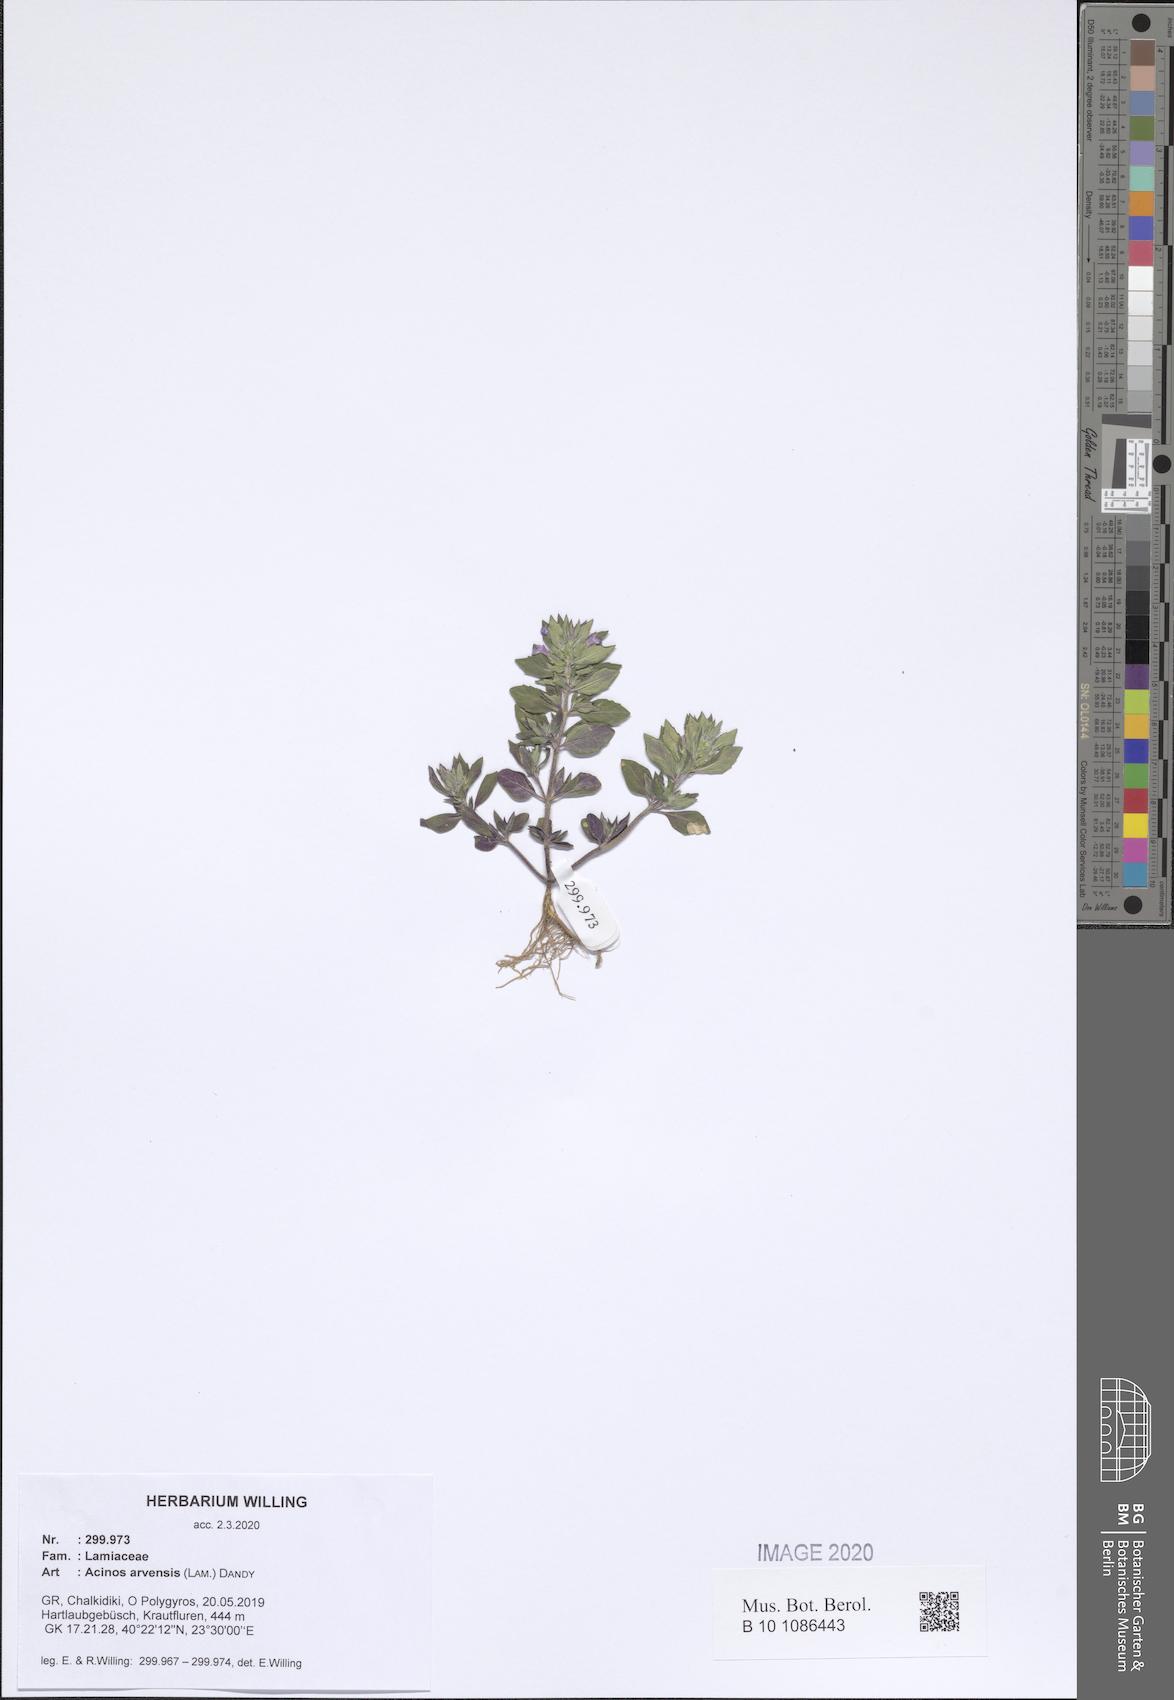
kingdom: Plantae
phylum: Tracheophyta
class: Magnoliopsida
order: Lamiales
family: Lamiaceae
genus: Clinopodium
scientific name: Clinopodium acinos
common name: Basil thyme
